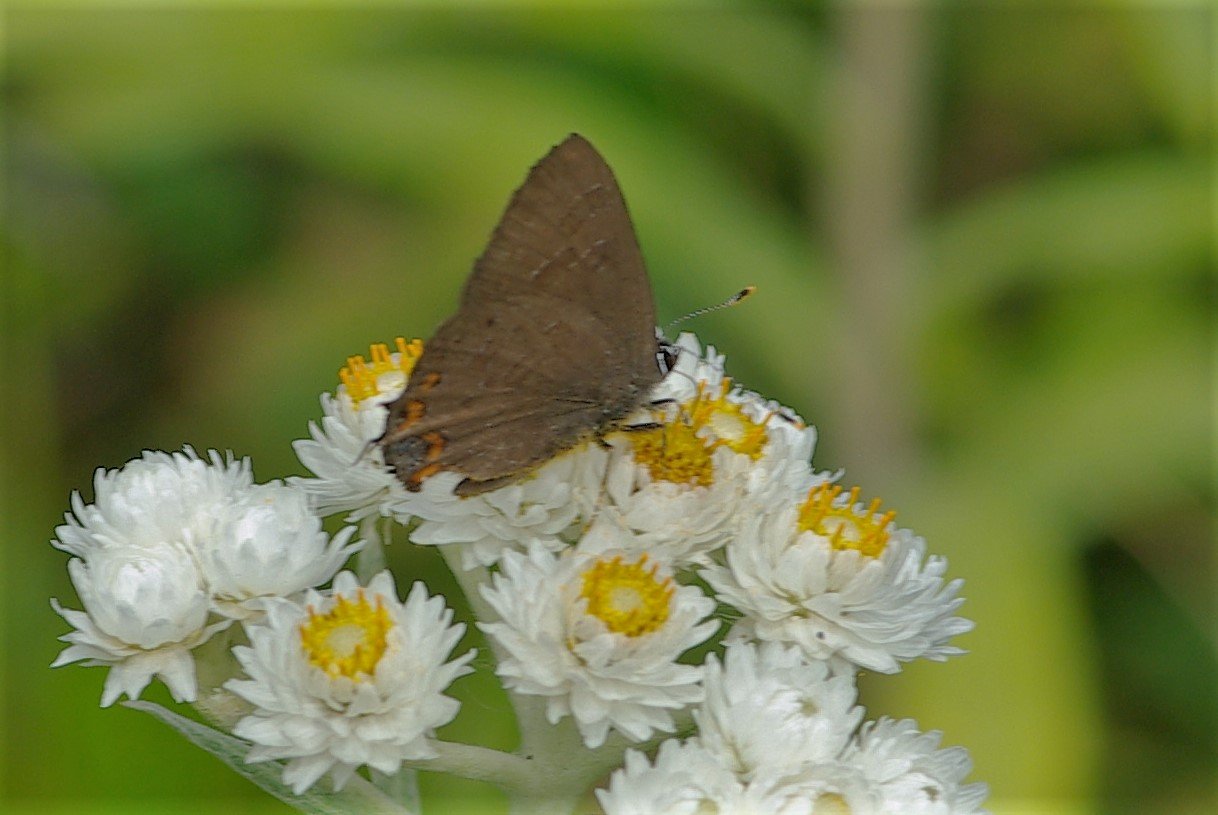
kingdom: Animalia
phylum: Arthropoda
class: Insecta
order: Lepidoptera
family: Lycaenidae
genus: Satyrium
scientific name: Satyrium liparops
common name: Striped Hairstreak
